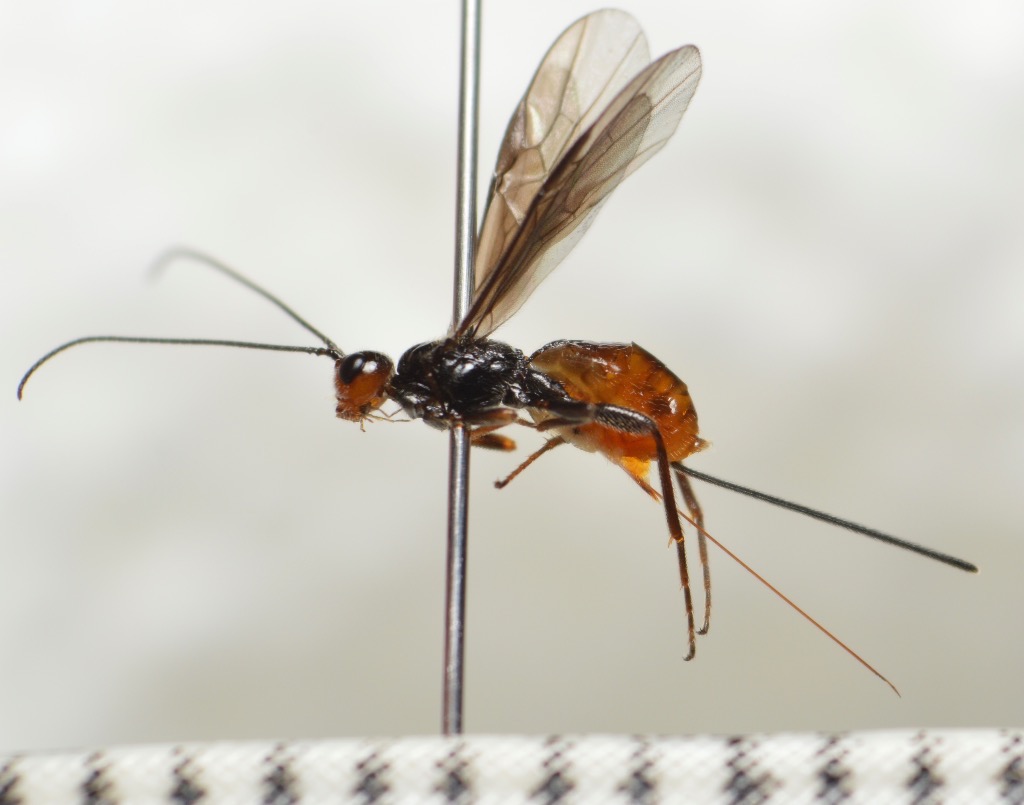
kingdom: Animalia
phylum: Arthropoda
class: Insecta
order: Hymenoptera
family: Braconidae
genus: Coeloides
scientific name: Coeloides forsteri
